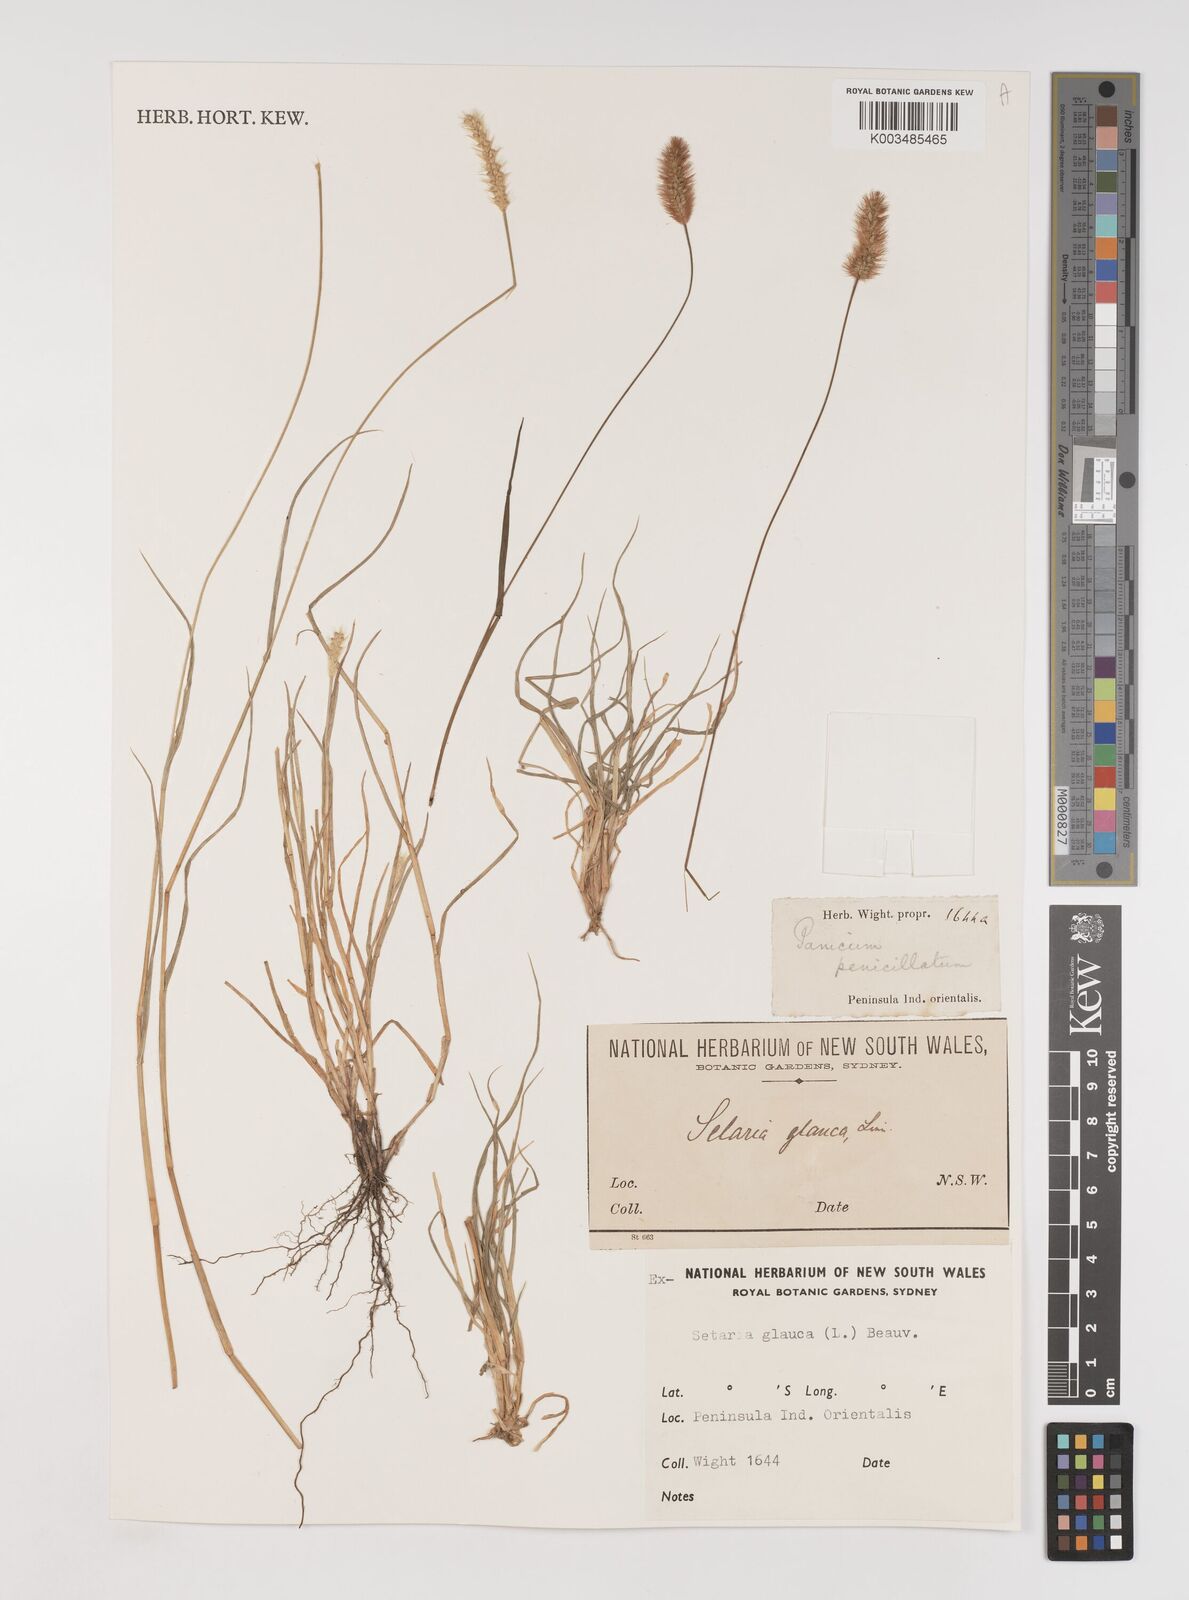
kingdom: Plantae
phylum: Tracheophyta
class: Liliopsida
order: Poales
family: Poaceae
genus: Setaria
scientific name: Setaria pumila
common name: Yellow bristle-grass
